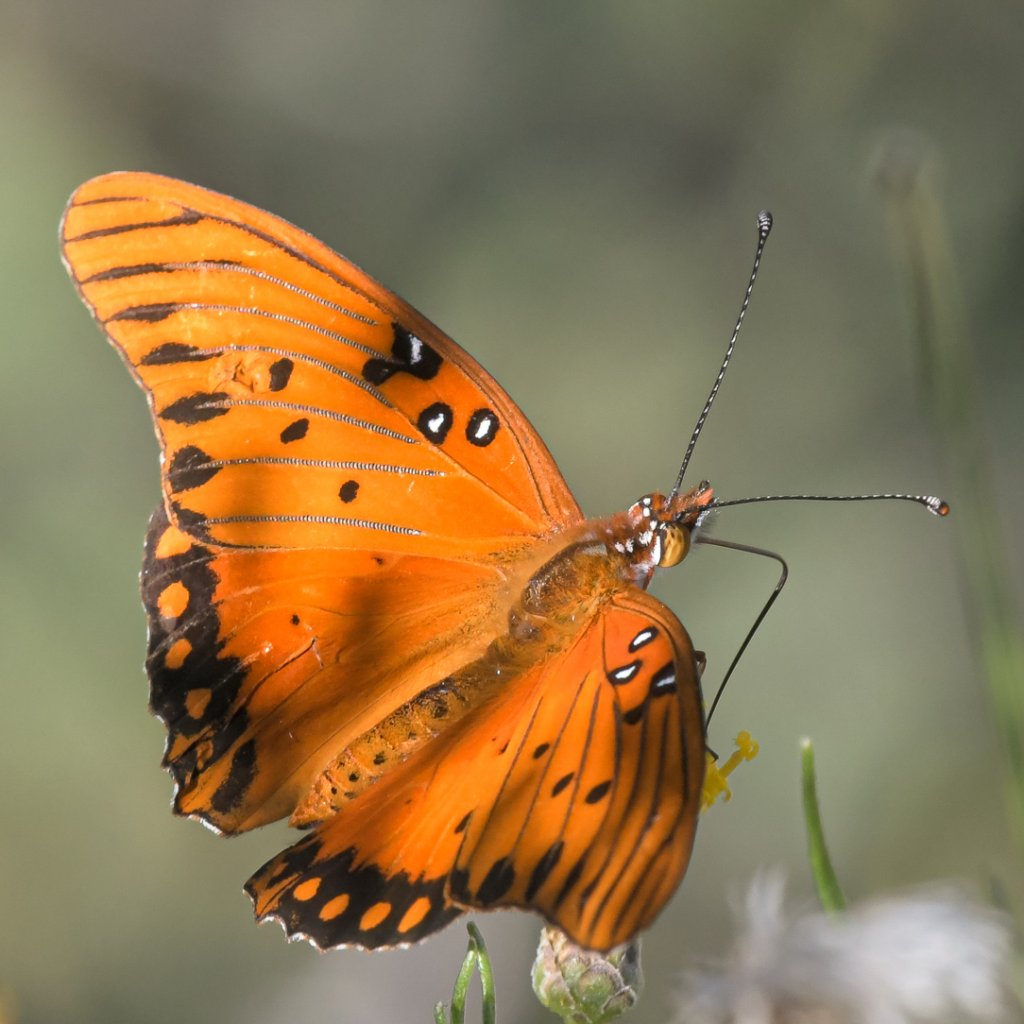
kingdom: Animalia
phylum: Arthropoda
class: Insecta
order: Lepidoptera
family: Nymphalidae
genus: Dione
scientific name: Dione vanillae
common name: Gulf Fritillary
